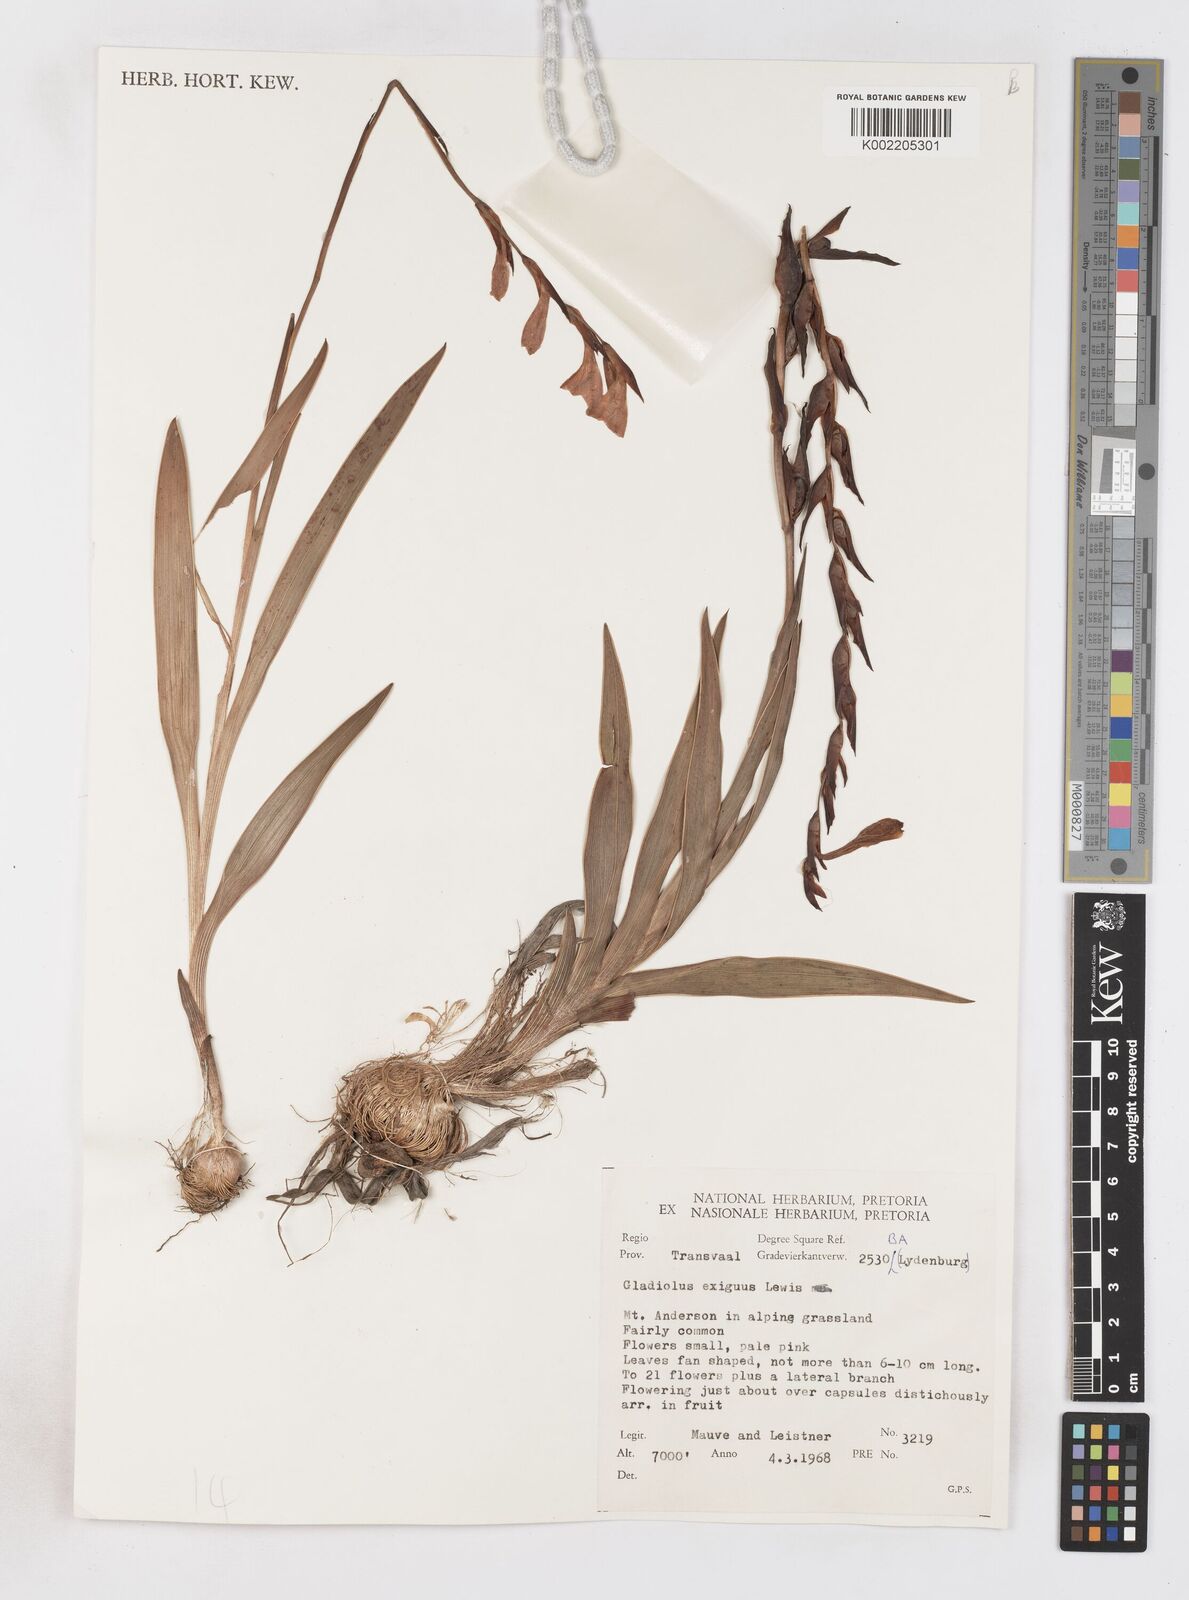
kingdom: Plantae
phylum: Tracheophyta
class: Liliopsida
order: Asparagales
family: Iridaceae
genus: Gladiolus
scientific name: Gladiolus exiguus
